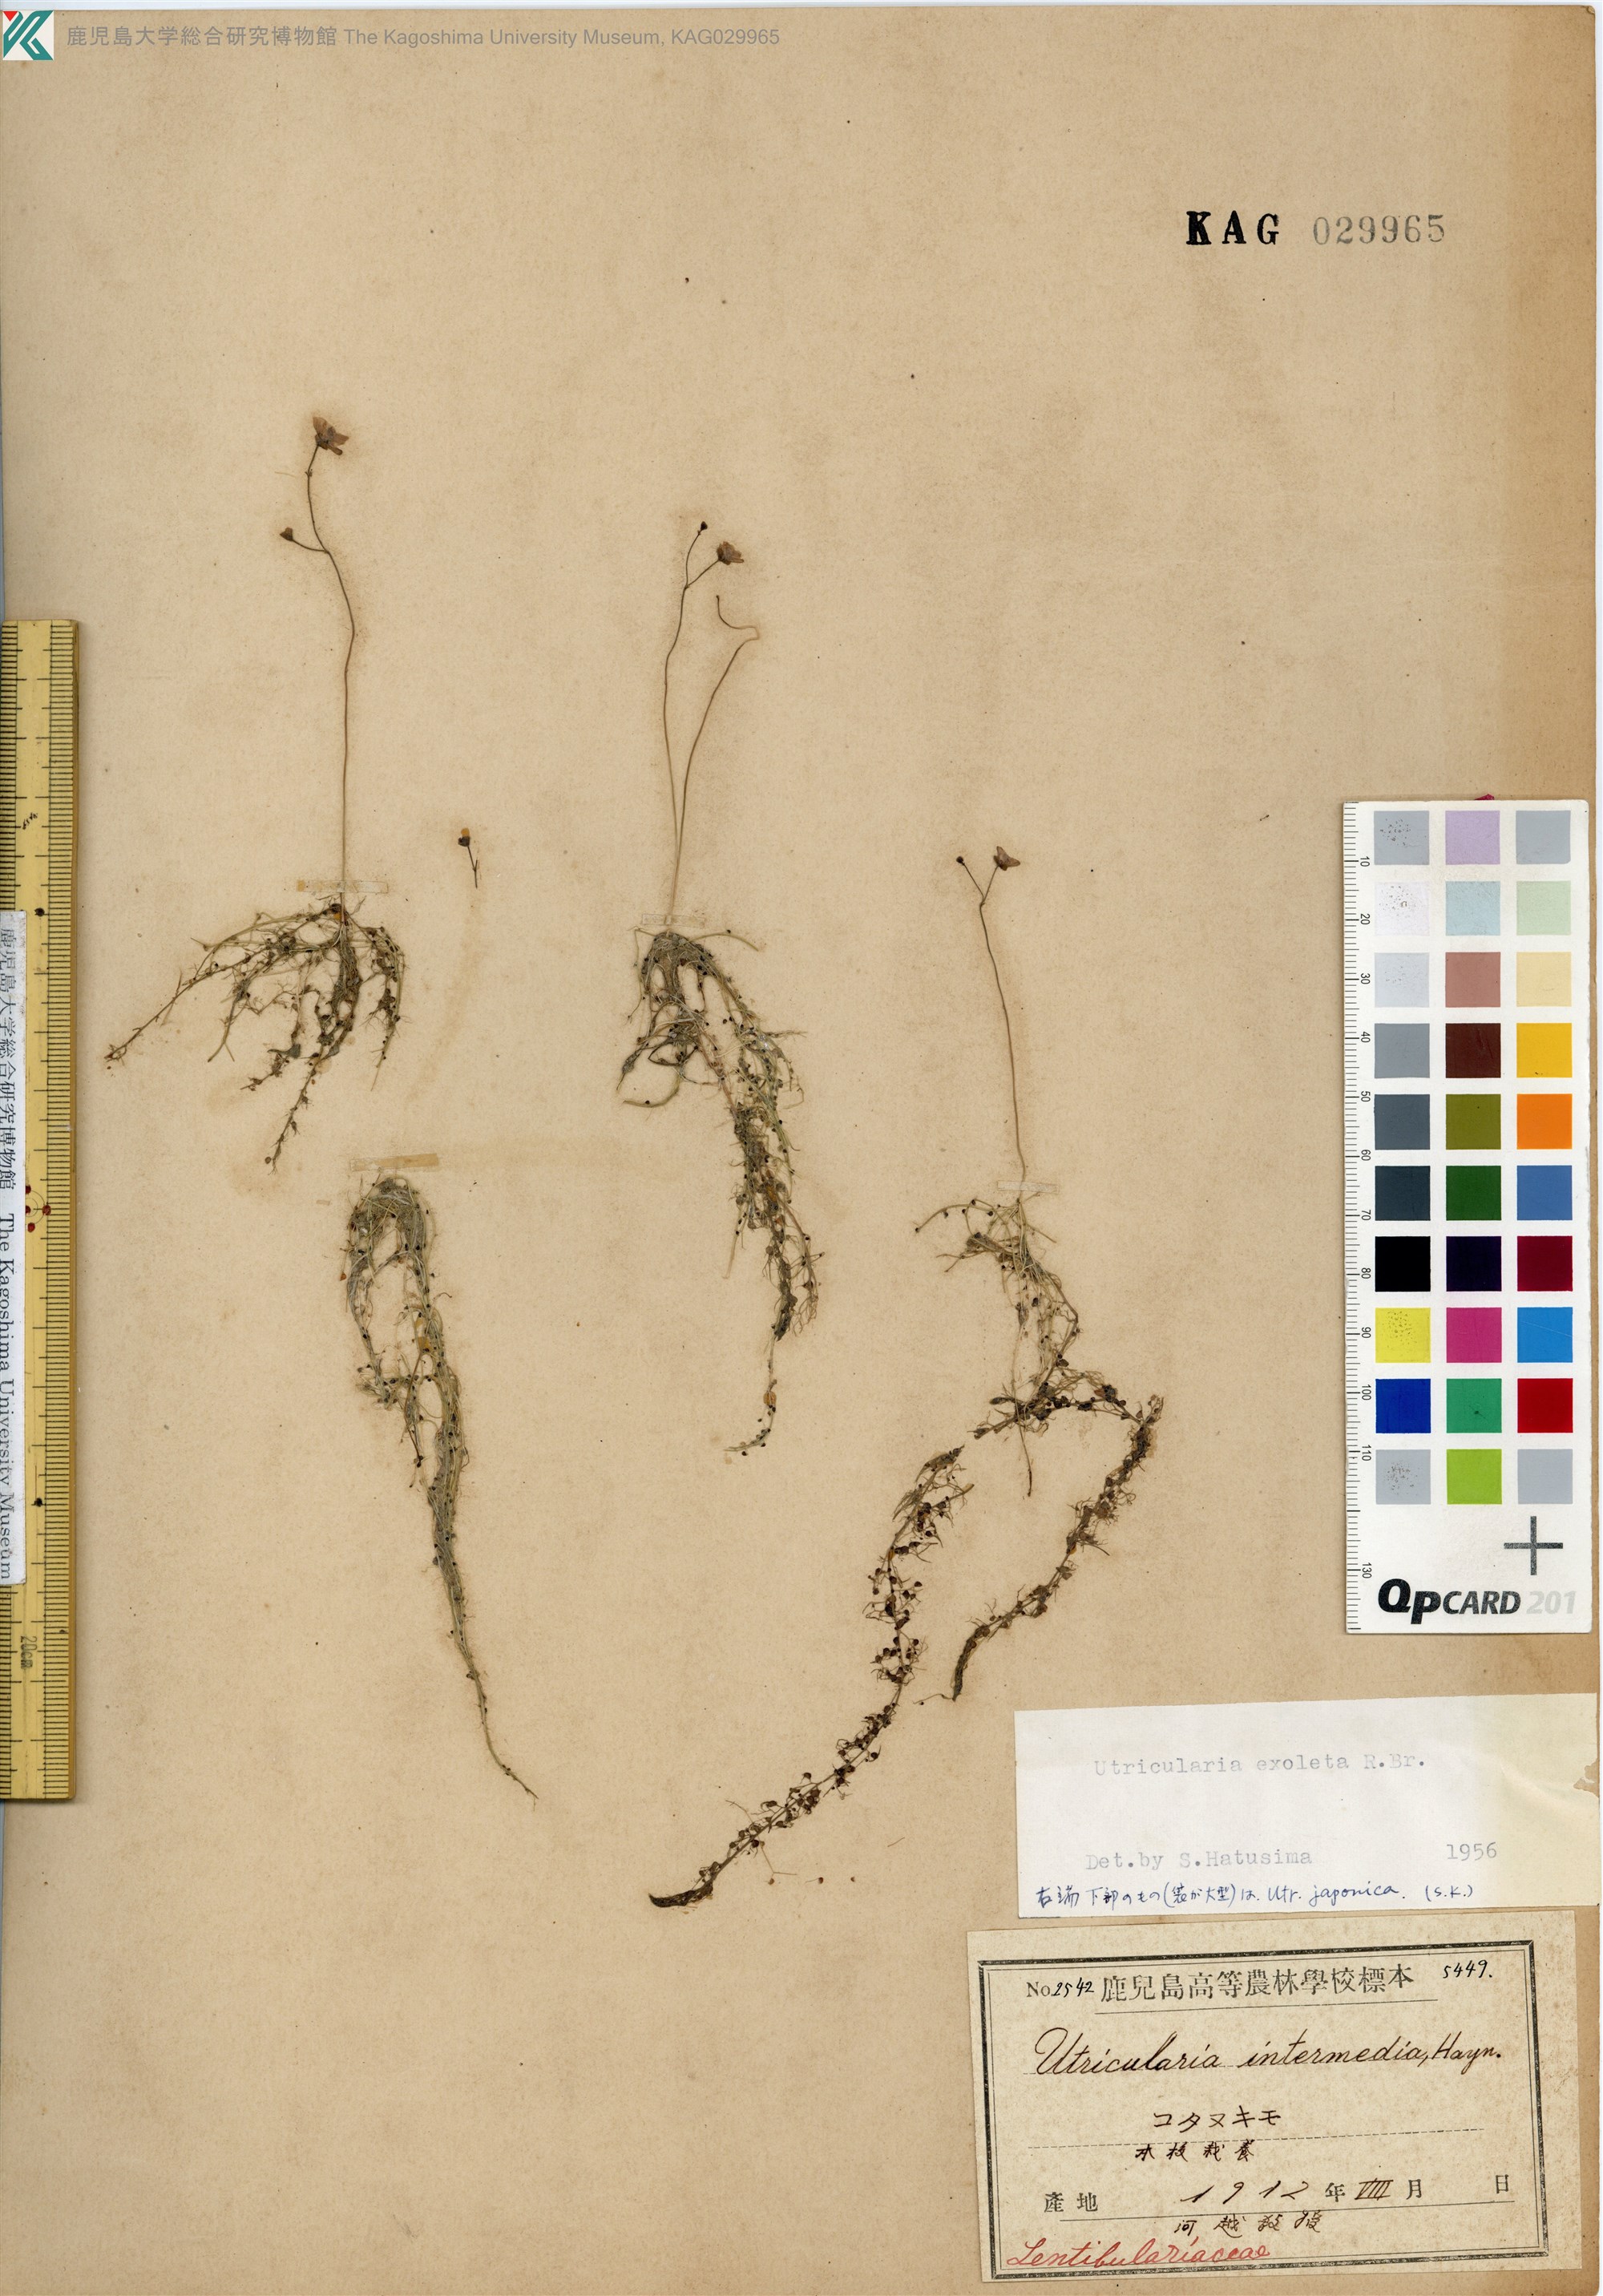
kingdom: Plantae
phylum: Tracheophyta
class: Magnoliopsida
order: Lamiales
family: Lentibulariaceae
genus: Utricularia
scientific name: Utricularia gibba
